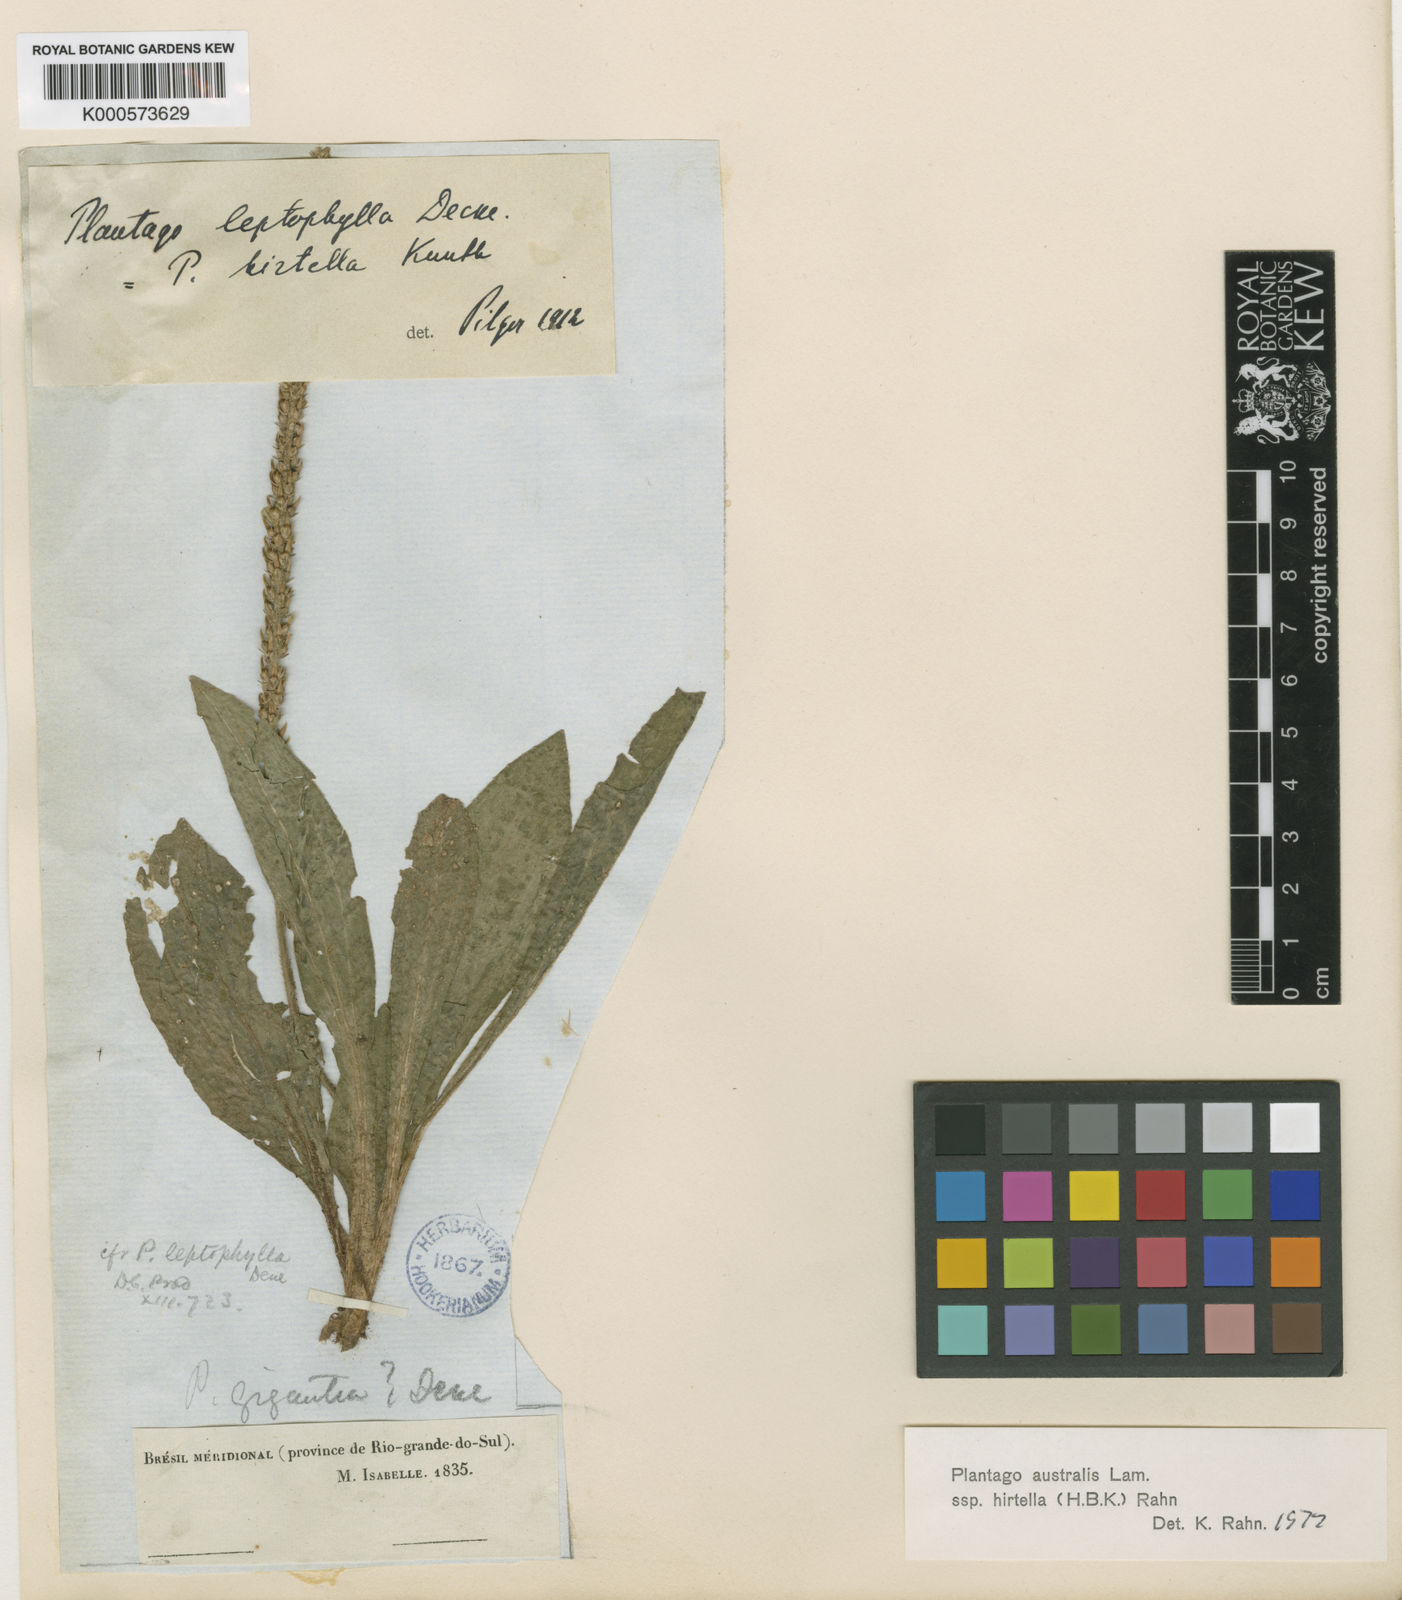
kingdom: Plantae
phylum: Tracheophyta
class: Magnoliopsida
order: Lamiales
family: Plantaginaceae
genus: Plantago
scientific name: Plantago australis
